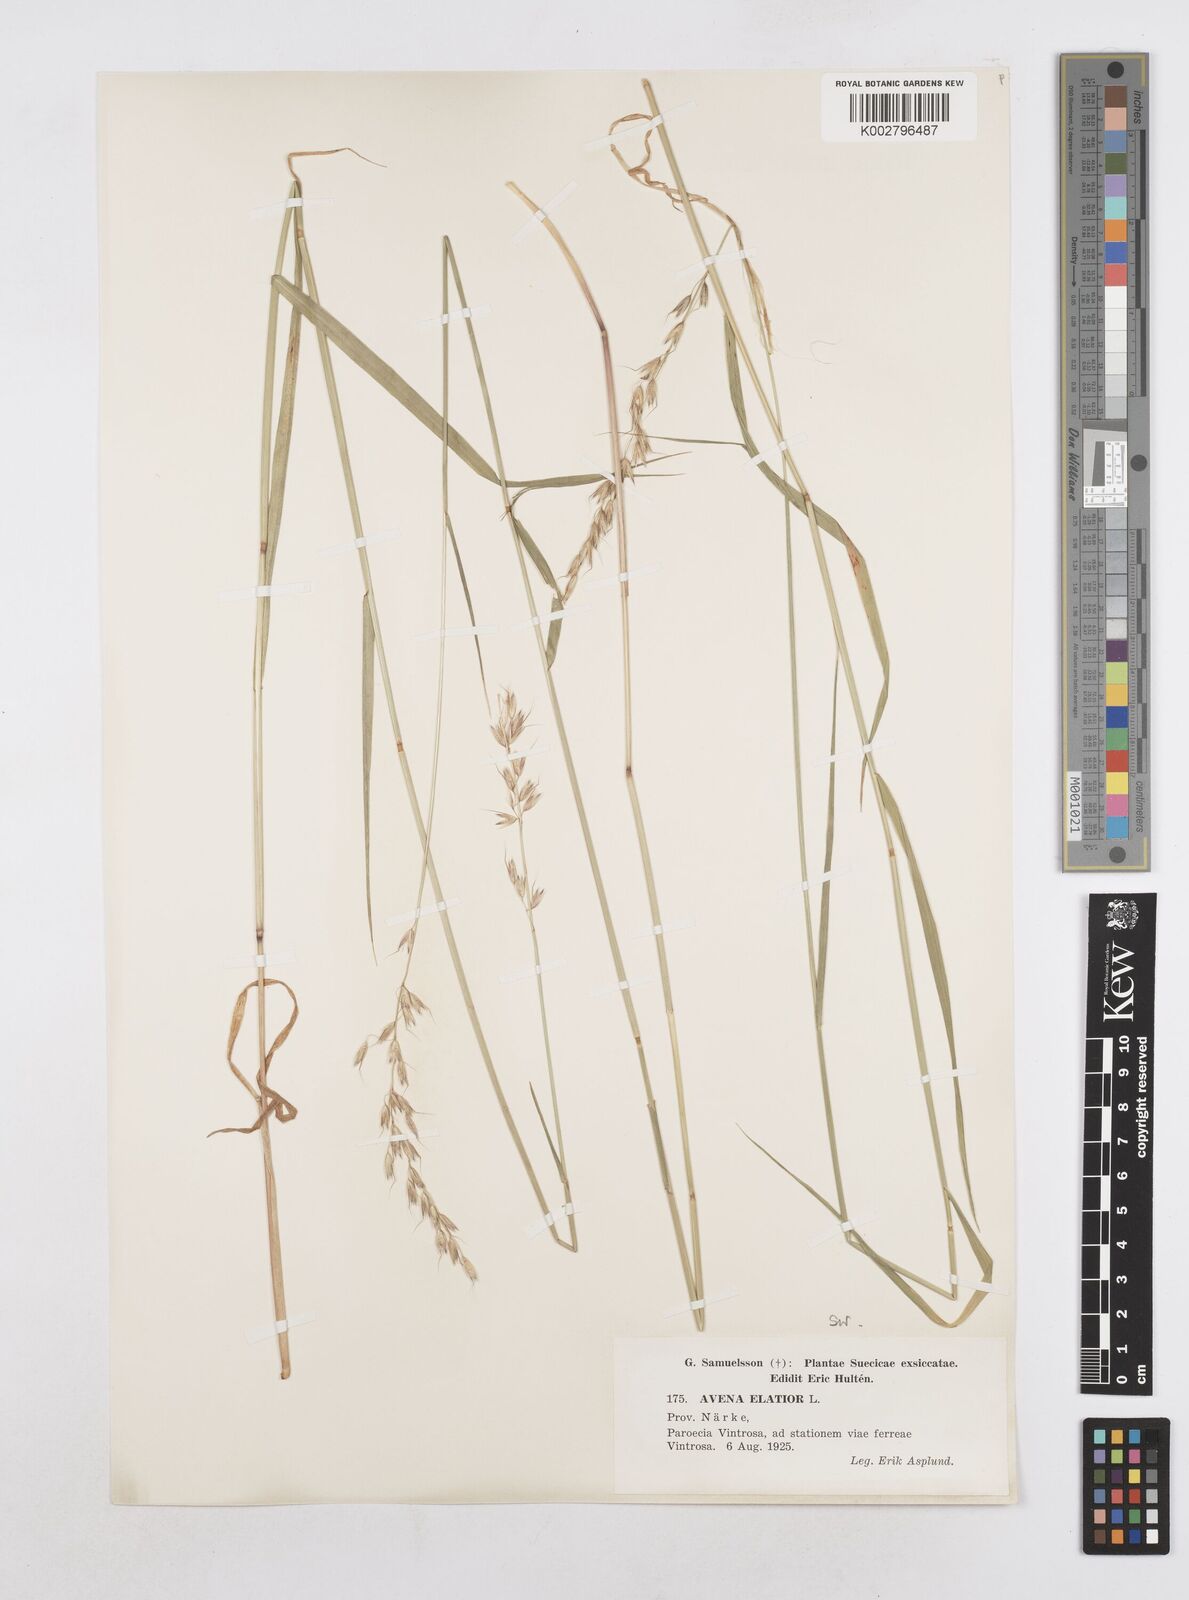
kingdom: Plantae
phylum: Tracheophyta
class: Liliopsida
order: Poales
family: Poaceae
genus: Arrhenatherum
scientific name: Arrhenatherum elatius
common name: Tall oatgrass
